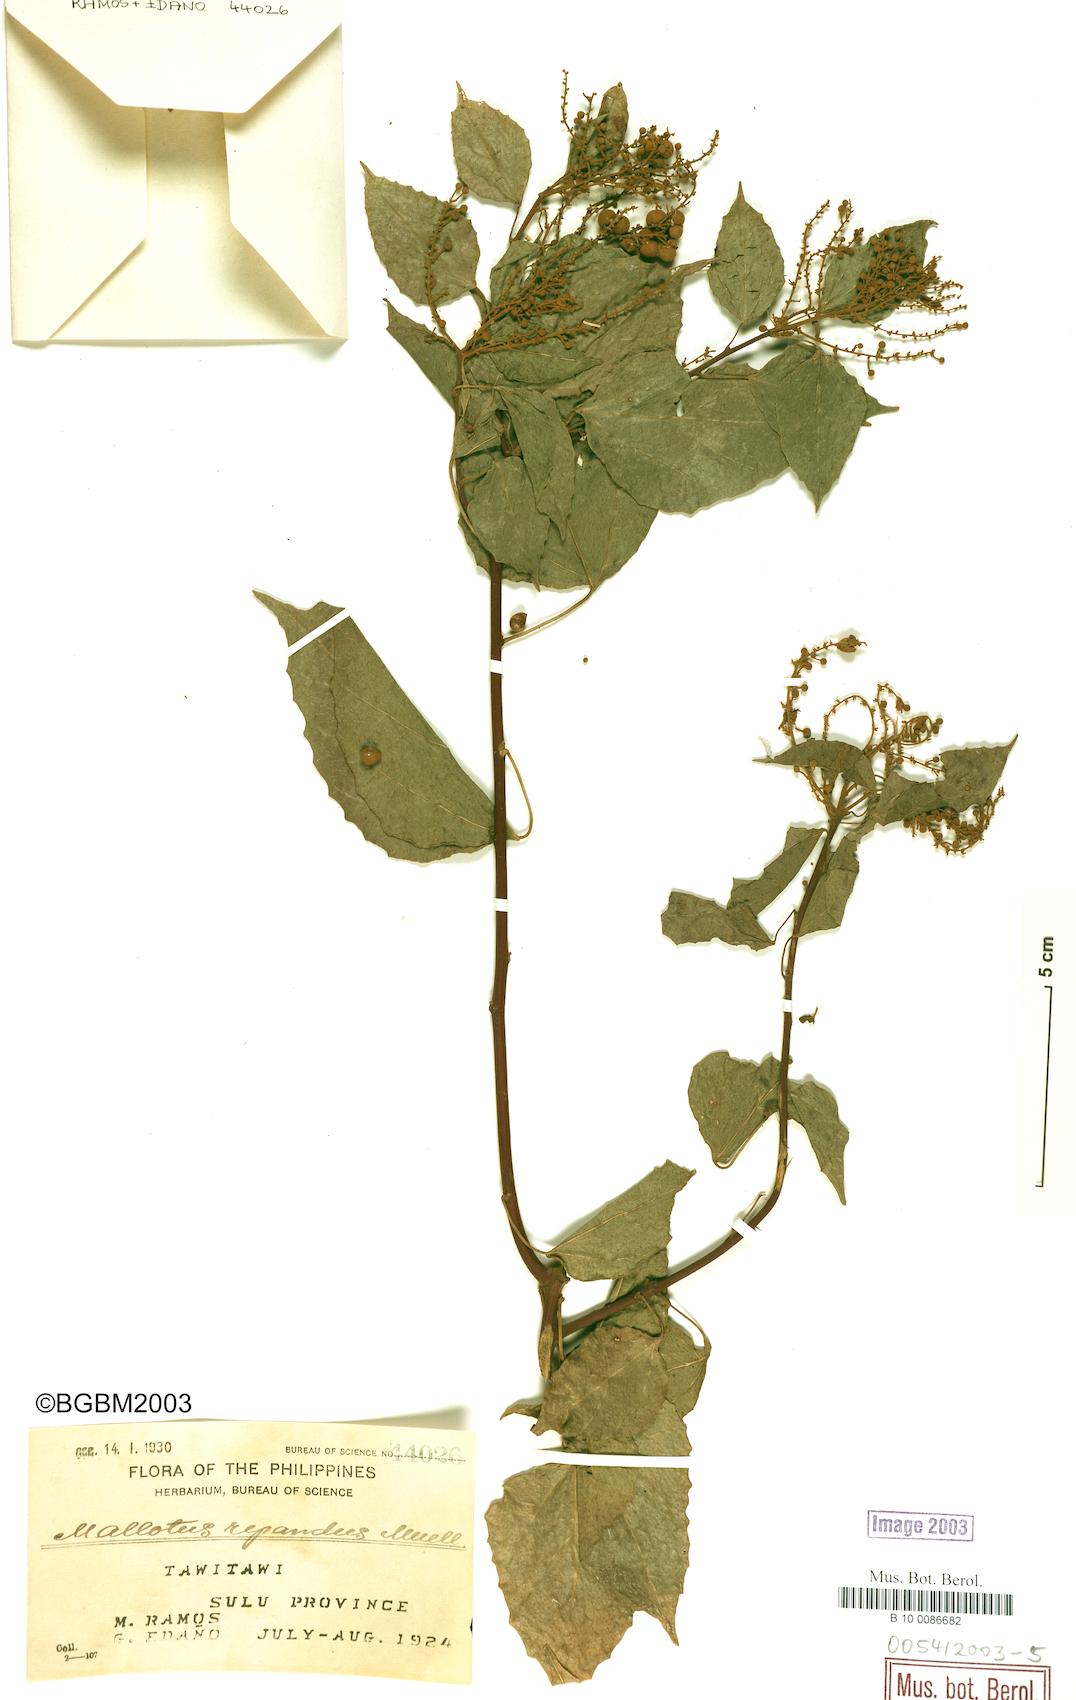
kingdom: Plantae
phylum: Tracheophyta
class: Magnoliopsida
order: Malpighiales
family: Euphorbiaceae
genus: Mallotus
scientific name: Mallotus repandus
